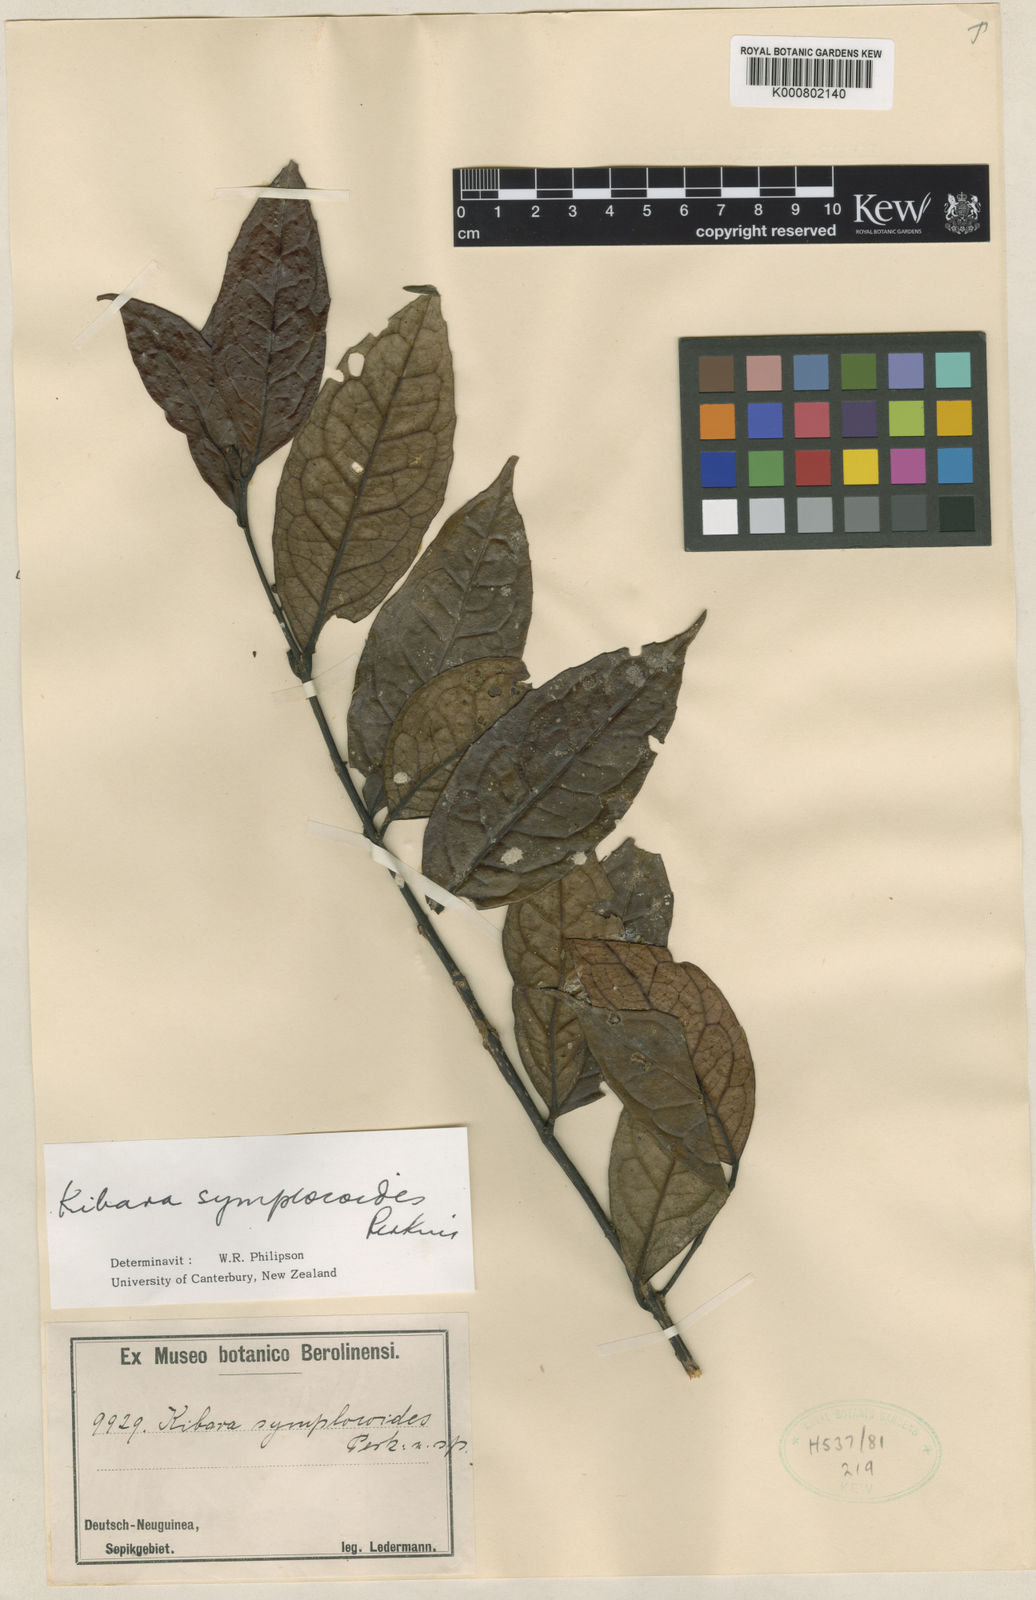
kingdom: Plantae
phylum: Tracheophyta
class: Magnoliopsida
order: Laurales
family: Monimiaceae
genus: Kibara
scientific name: Kibara symplocoides
